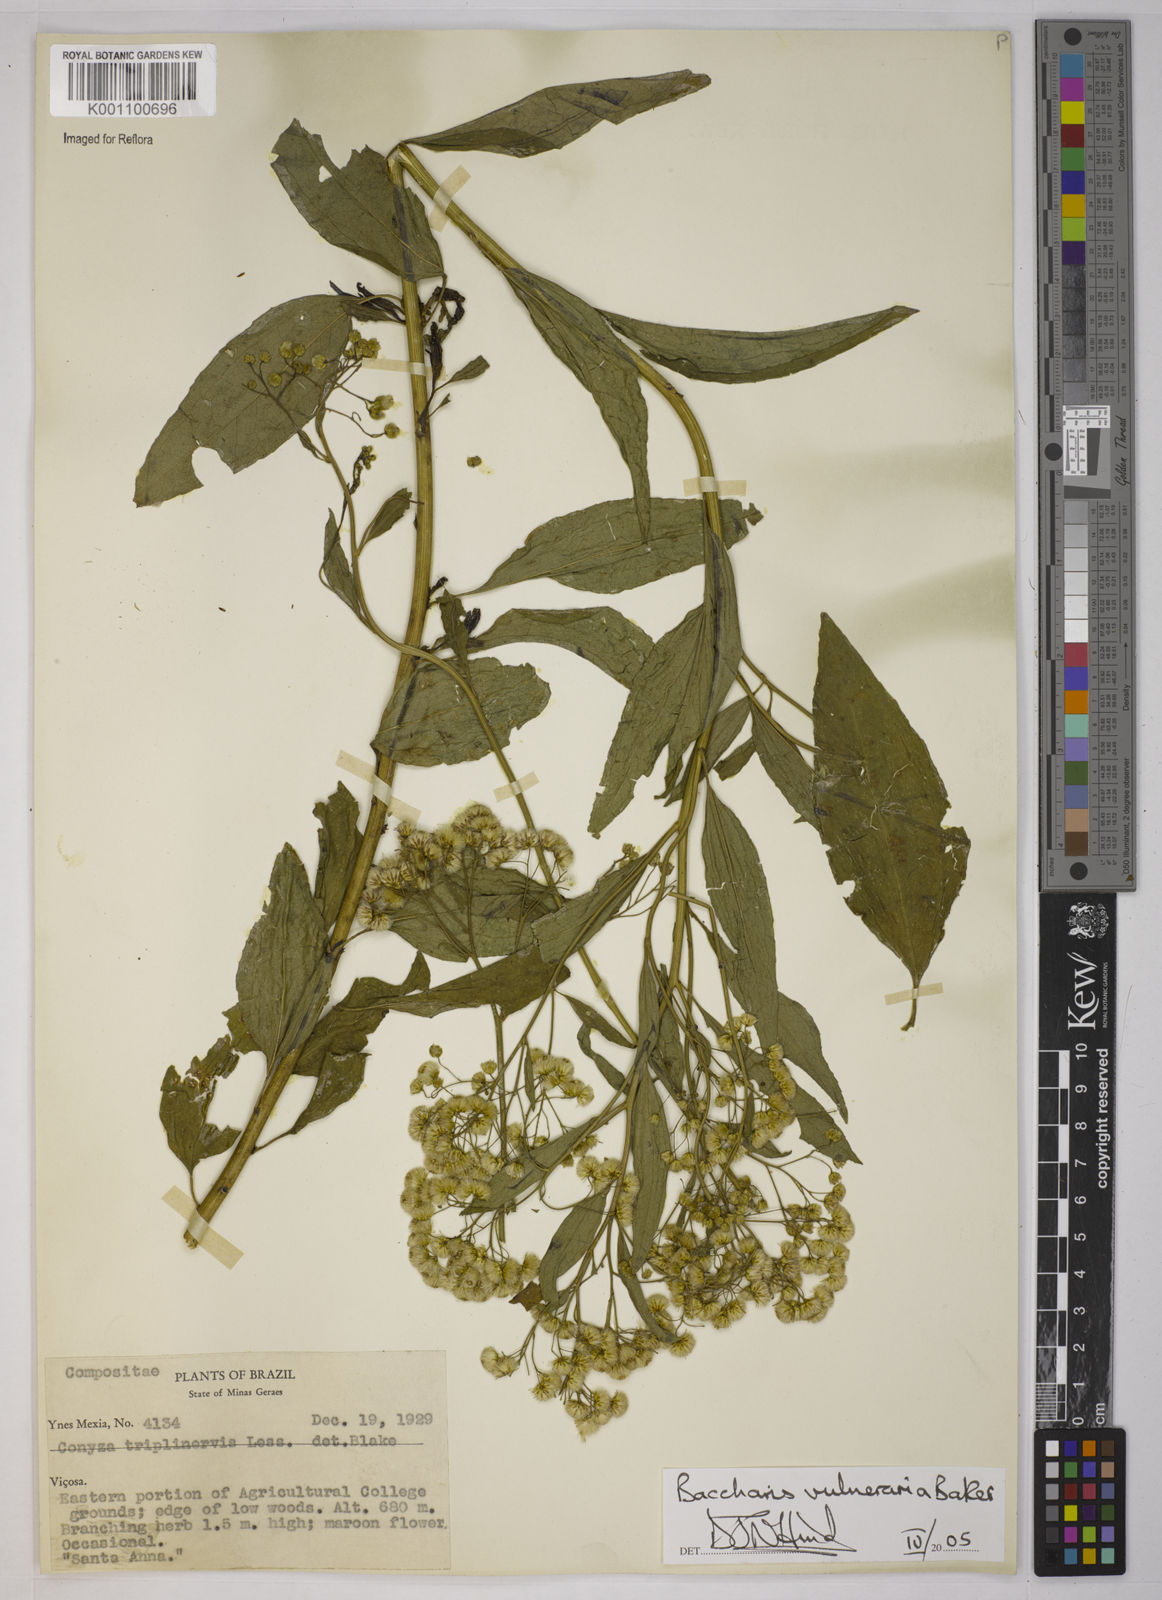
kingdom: Plantae
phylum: Tracheophyta
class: Magnoliopsida
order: Asterales
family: Asteraceae
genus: Archibaccharis
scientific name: Archibaccharis vulneraria
